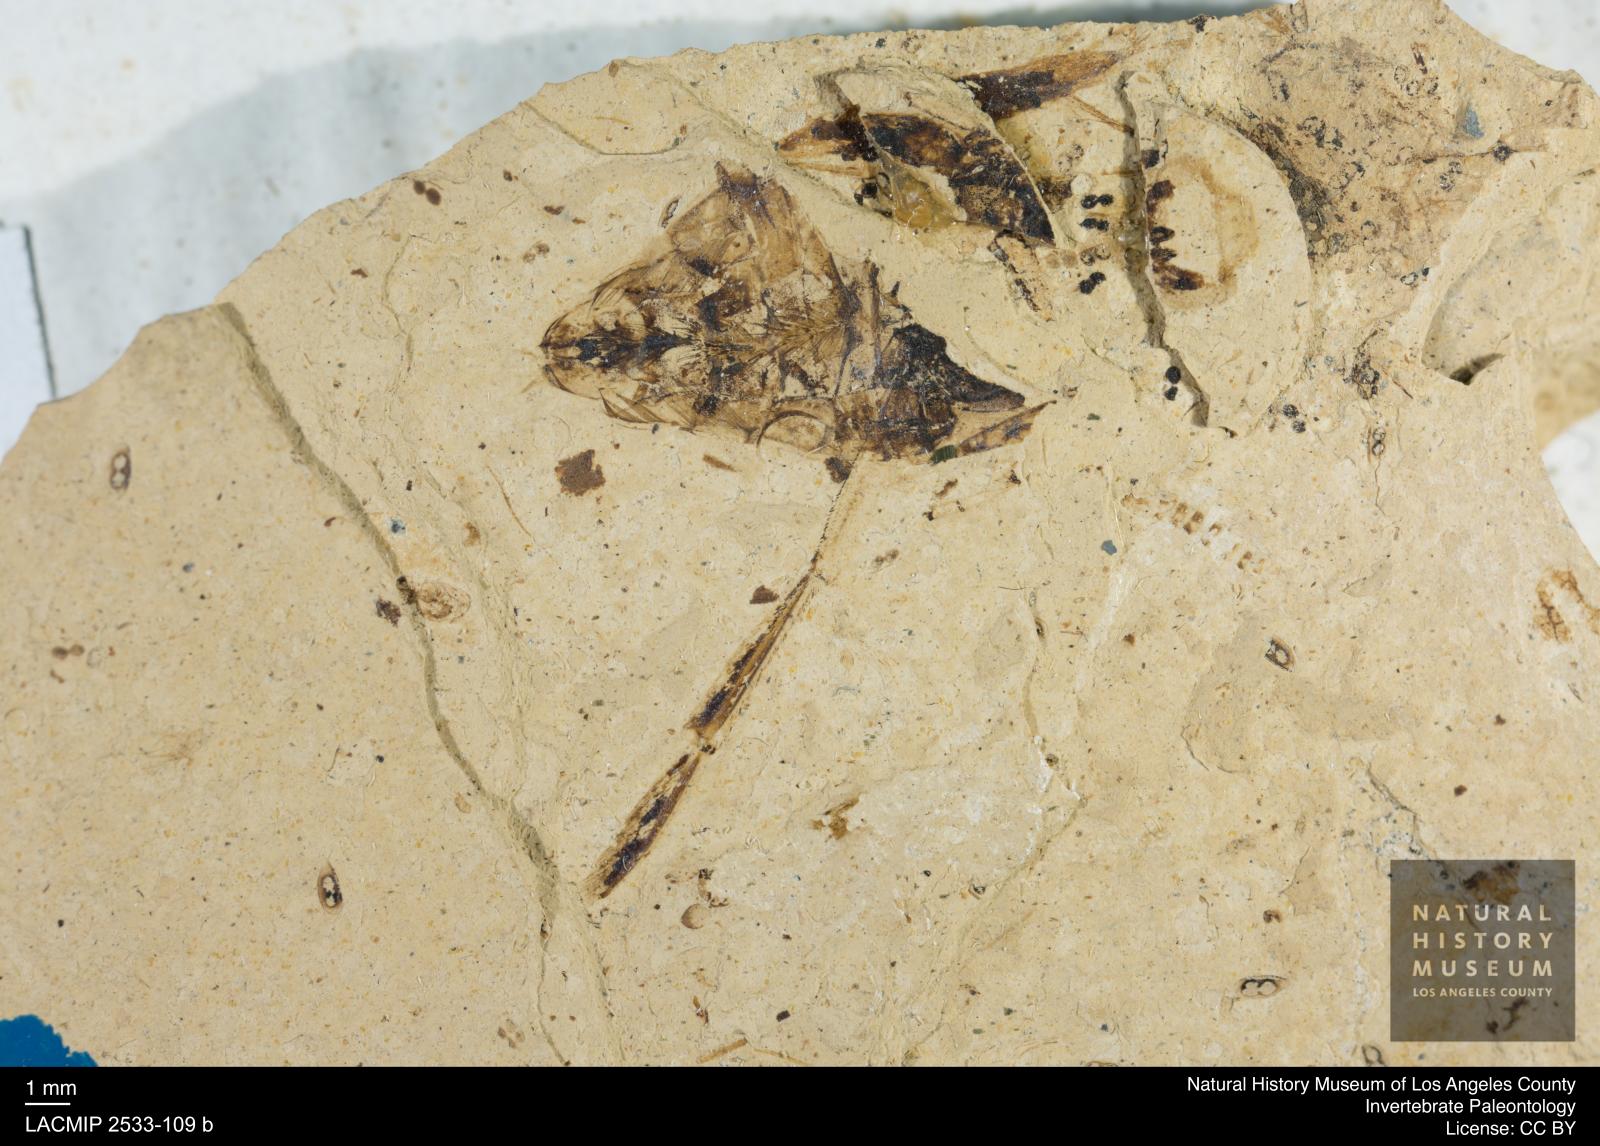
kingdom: Animalia
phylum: Arthropoda
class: Insecta
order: Hemiptera
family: Notonectidae
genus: Notonecta
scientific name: Notonecta primaeva
